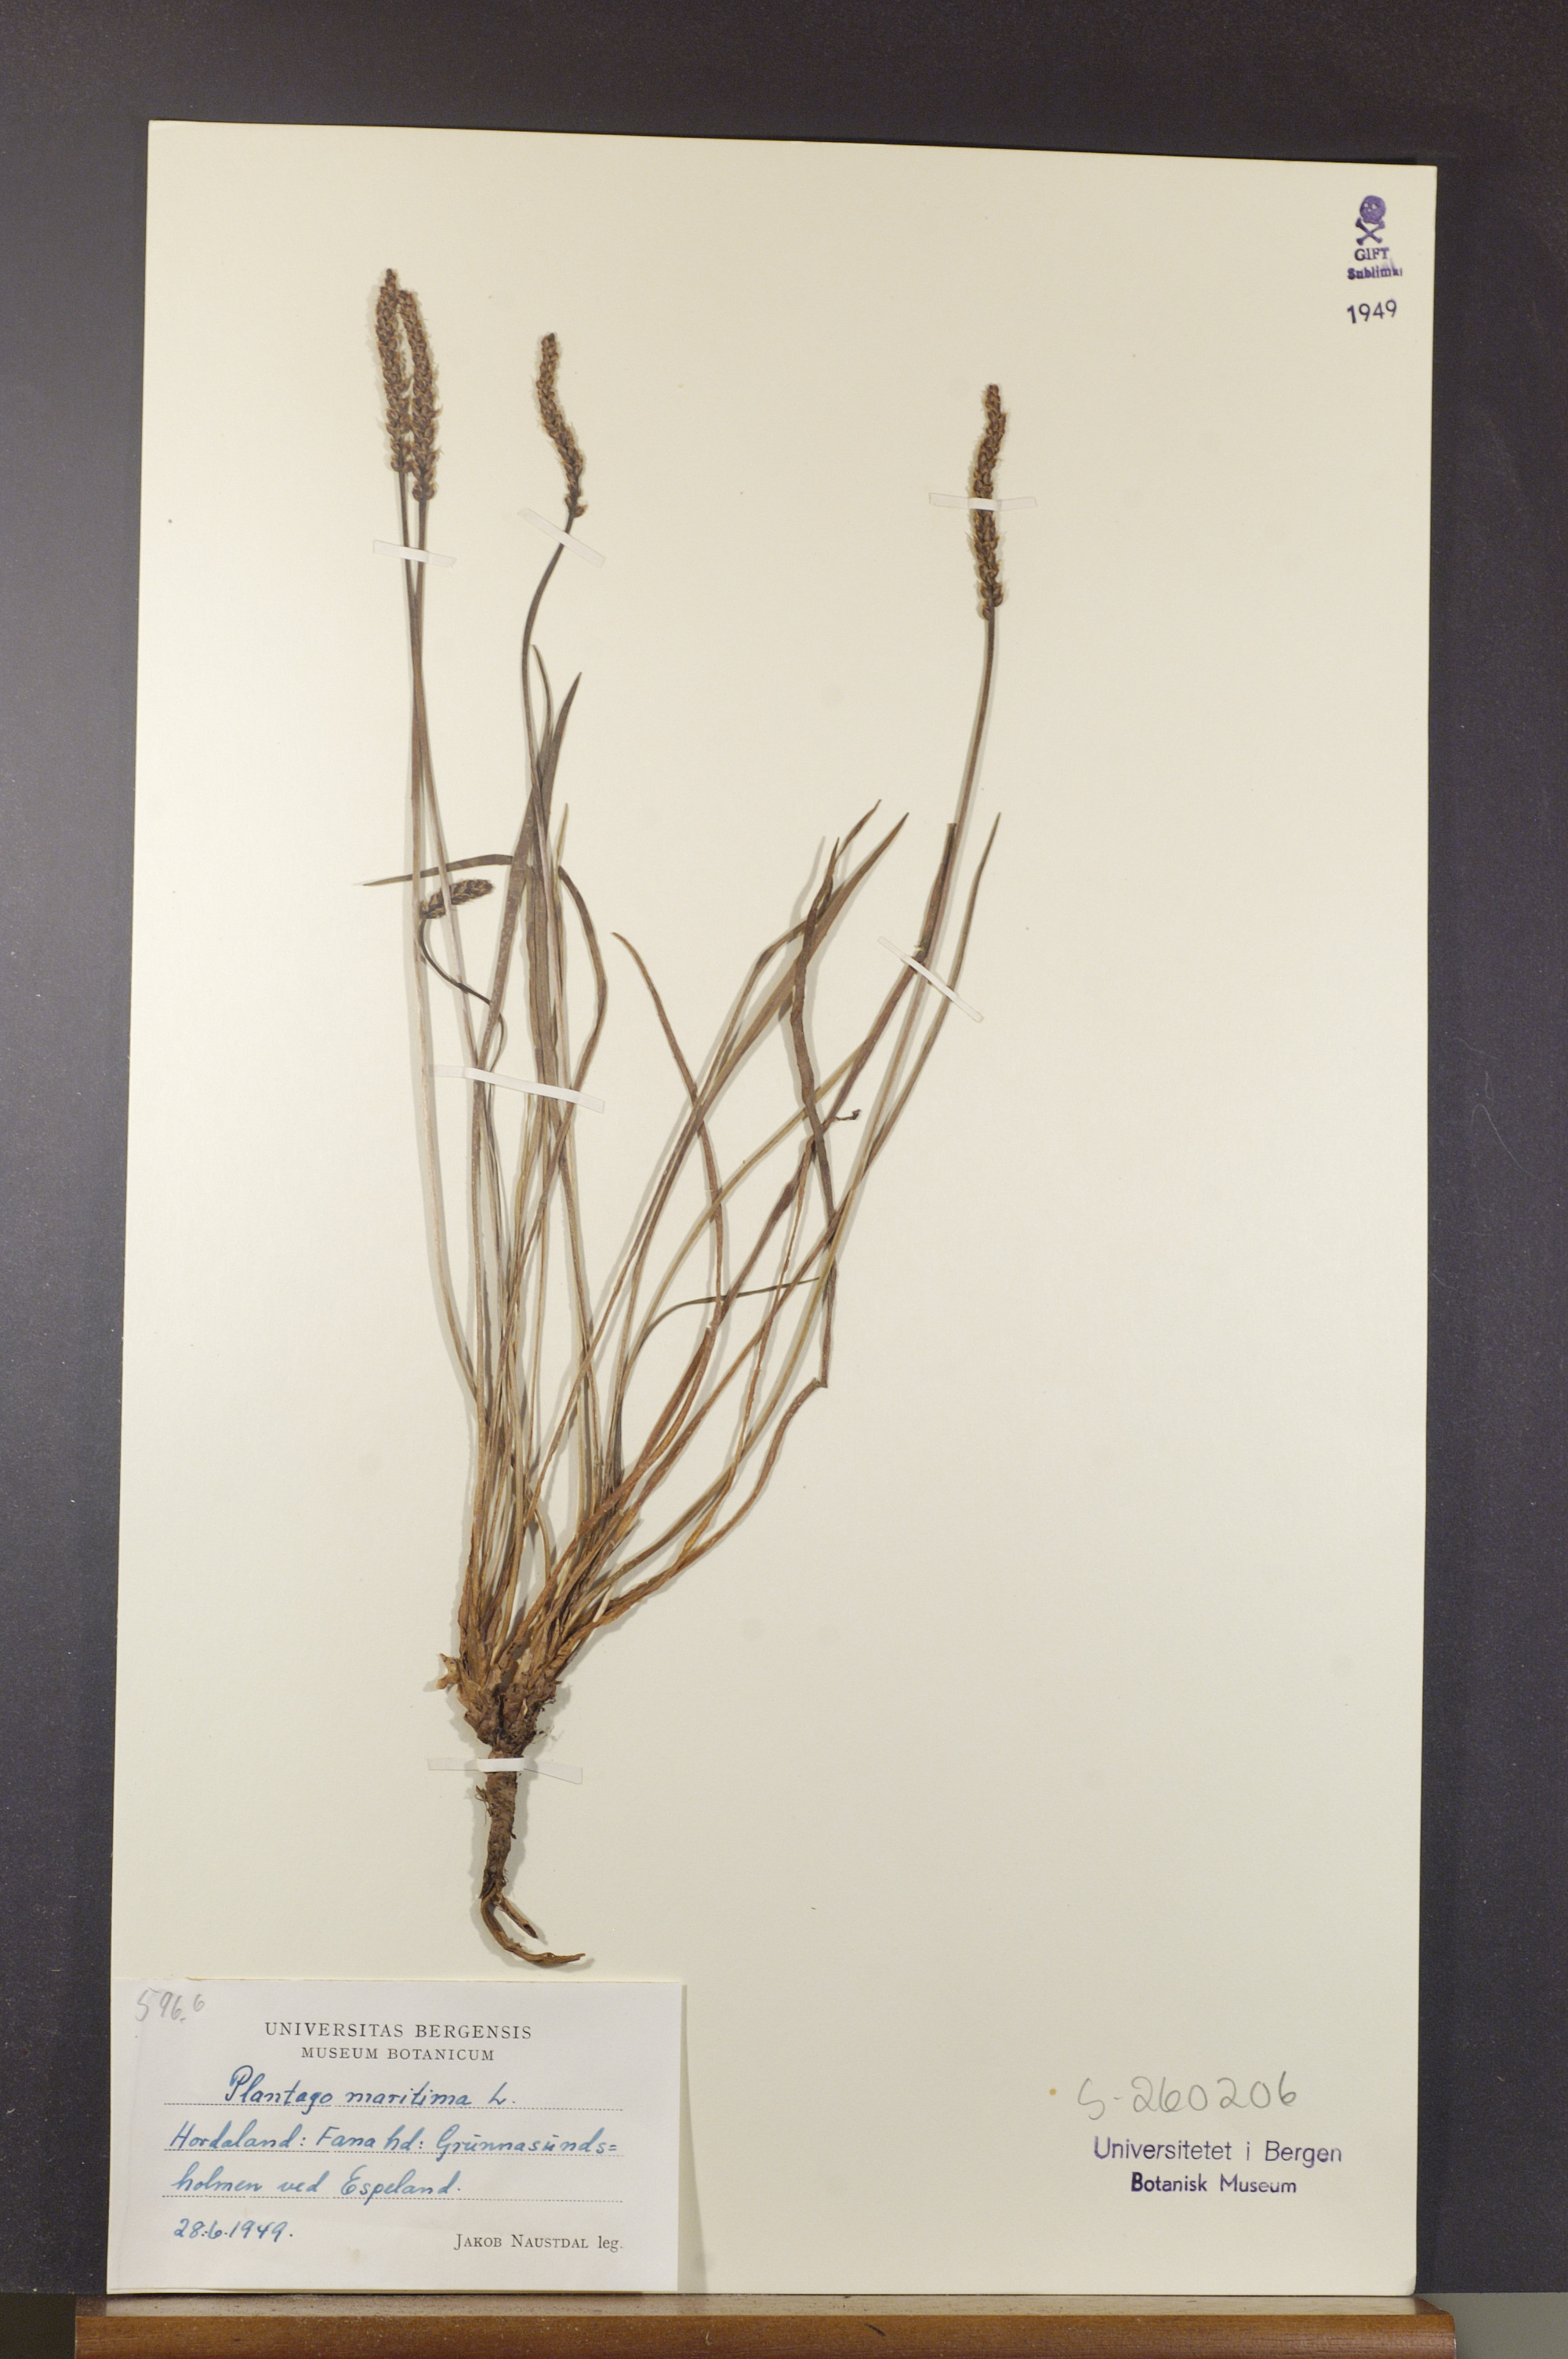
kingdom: Plantae
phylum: Tracheophyta
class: Magnoliopsida
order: Lamiales
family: Plantaginaceae
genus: Plantago
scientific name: Plantago maritima
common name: Sea plantain
